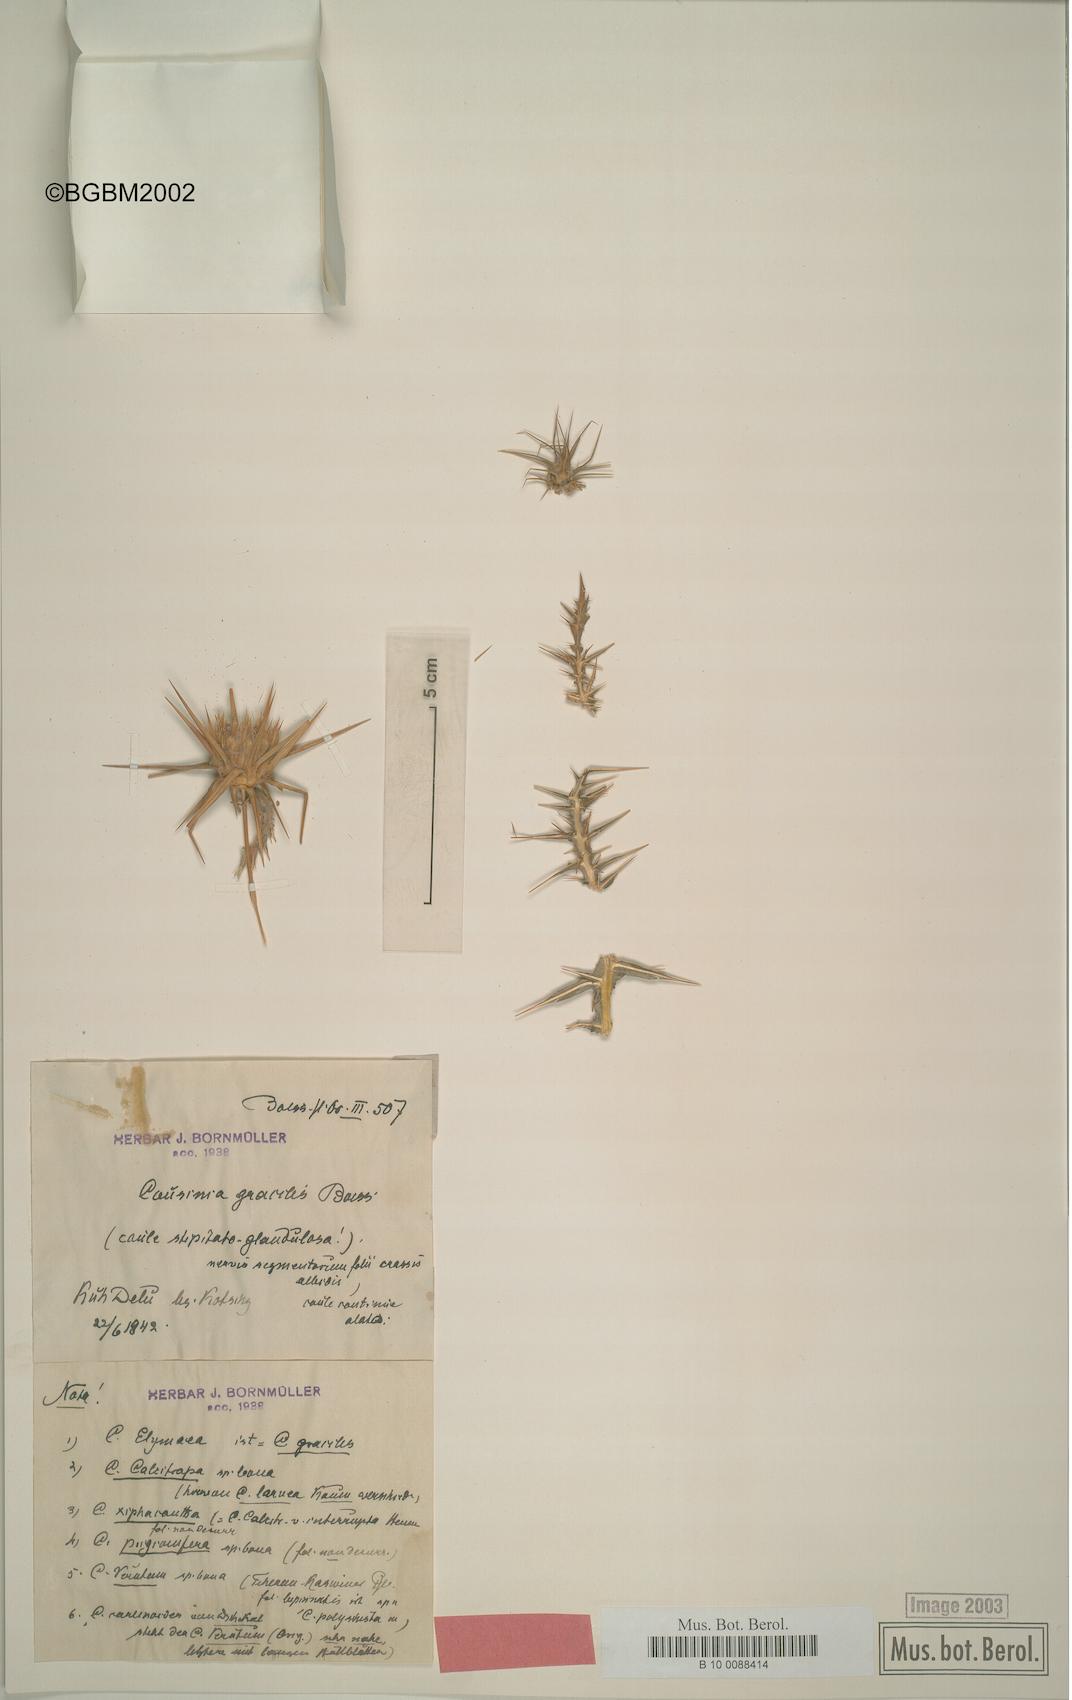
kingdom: Plantae
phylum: Tracheophyta
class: Magnoliopsida
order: Asterales
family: Asteraceae
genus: Cousinia
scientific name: Cousinia gracilis
